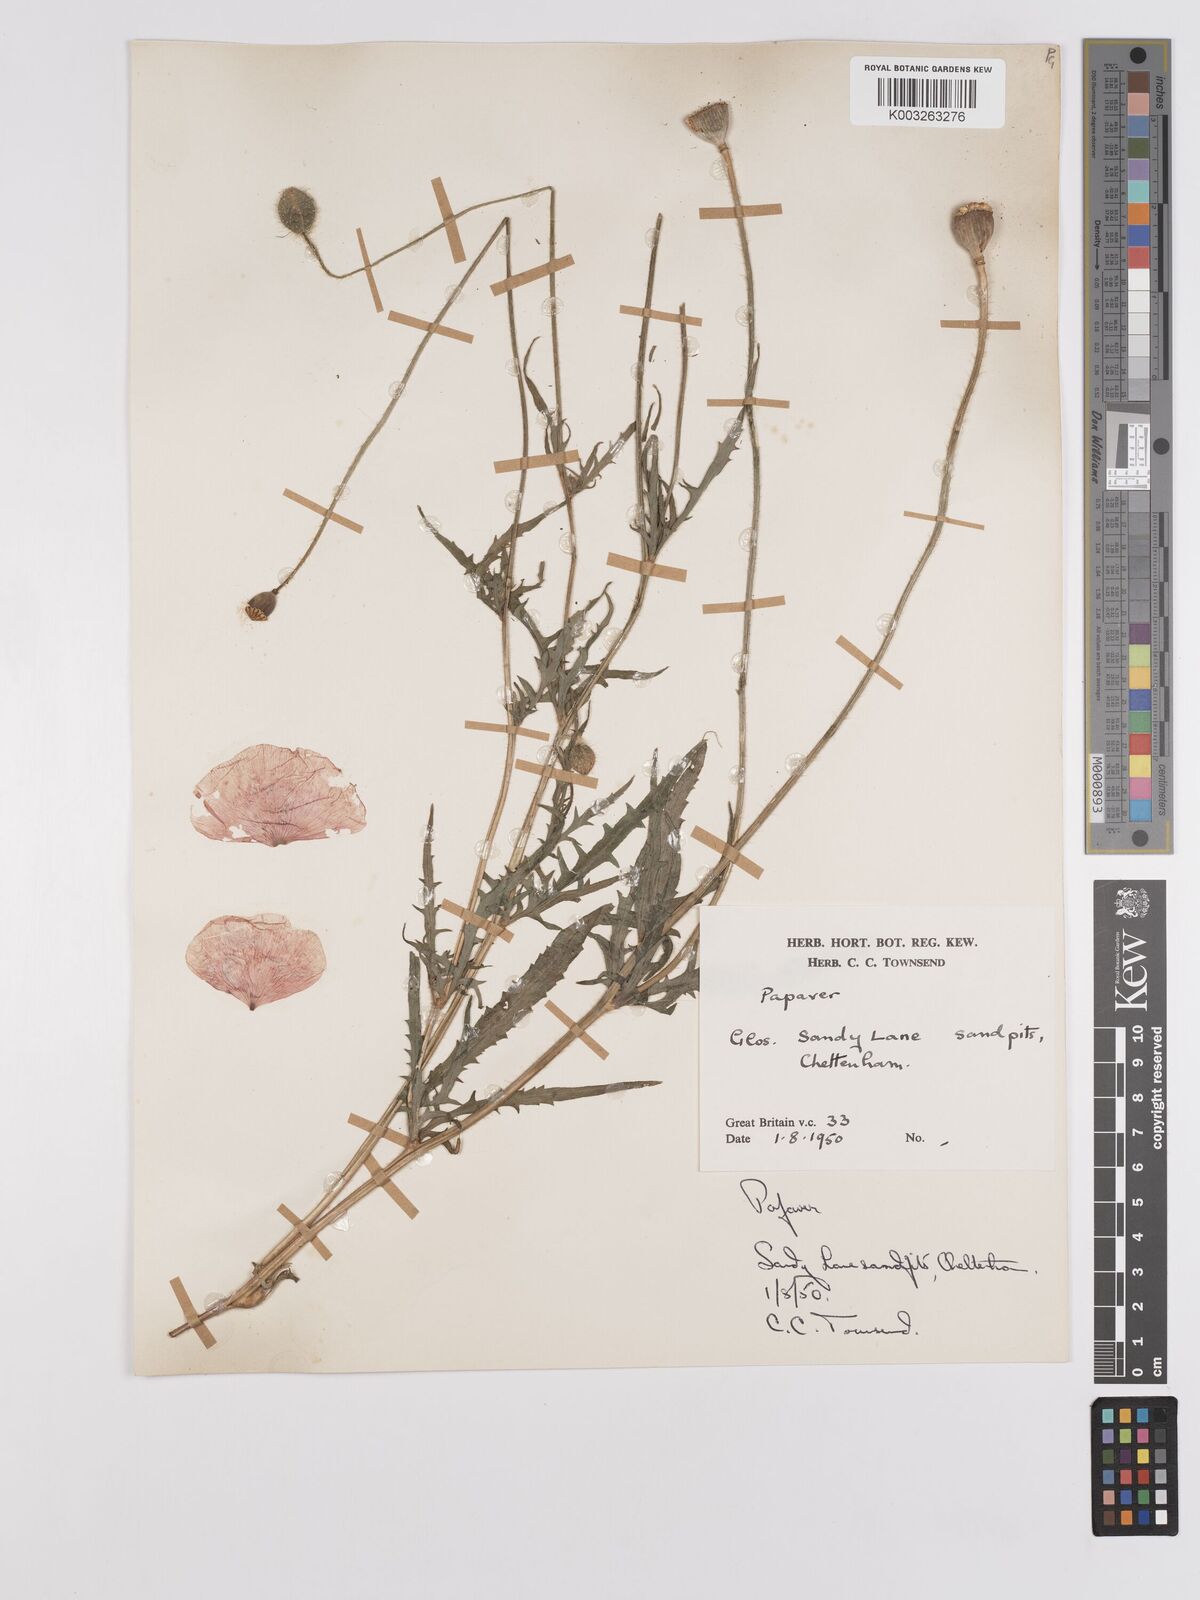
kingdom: Plantae
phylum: Tracheophyta
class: Magnoliopsida
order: Ranunculales
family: Papaveraceae
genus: Papaver
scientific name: Papaver
